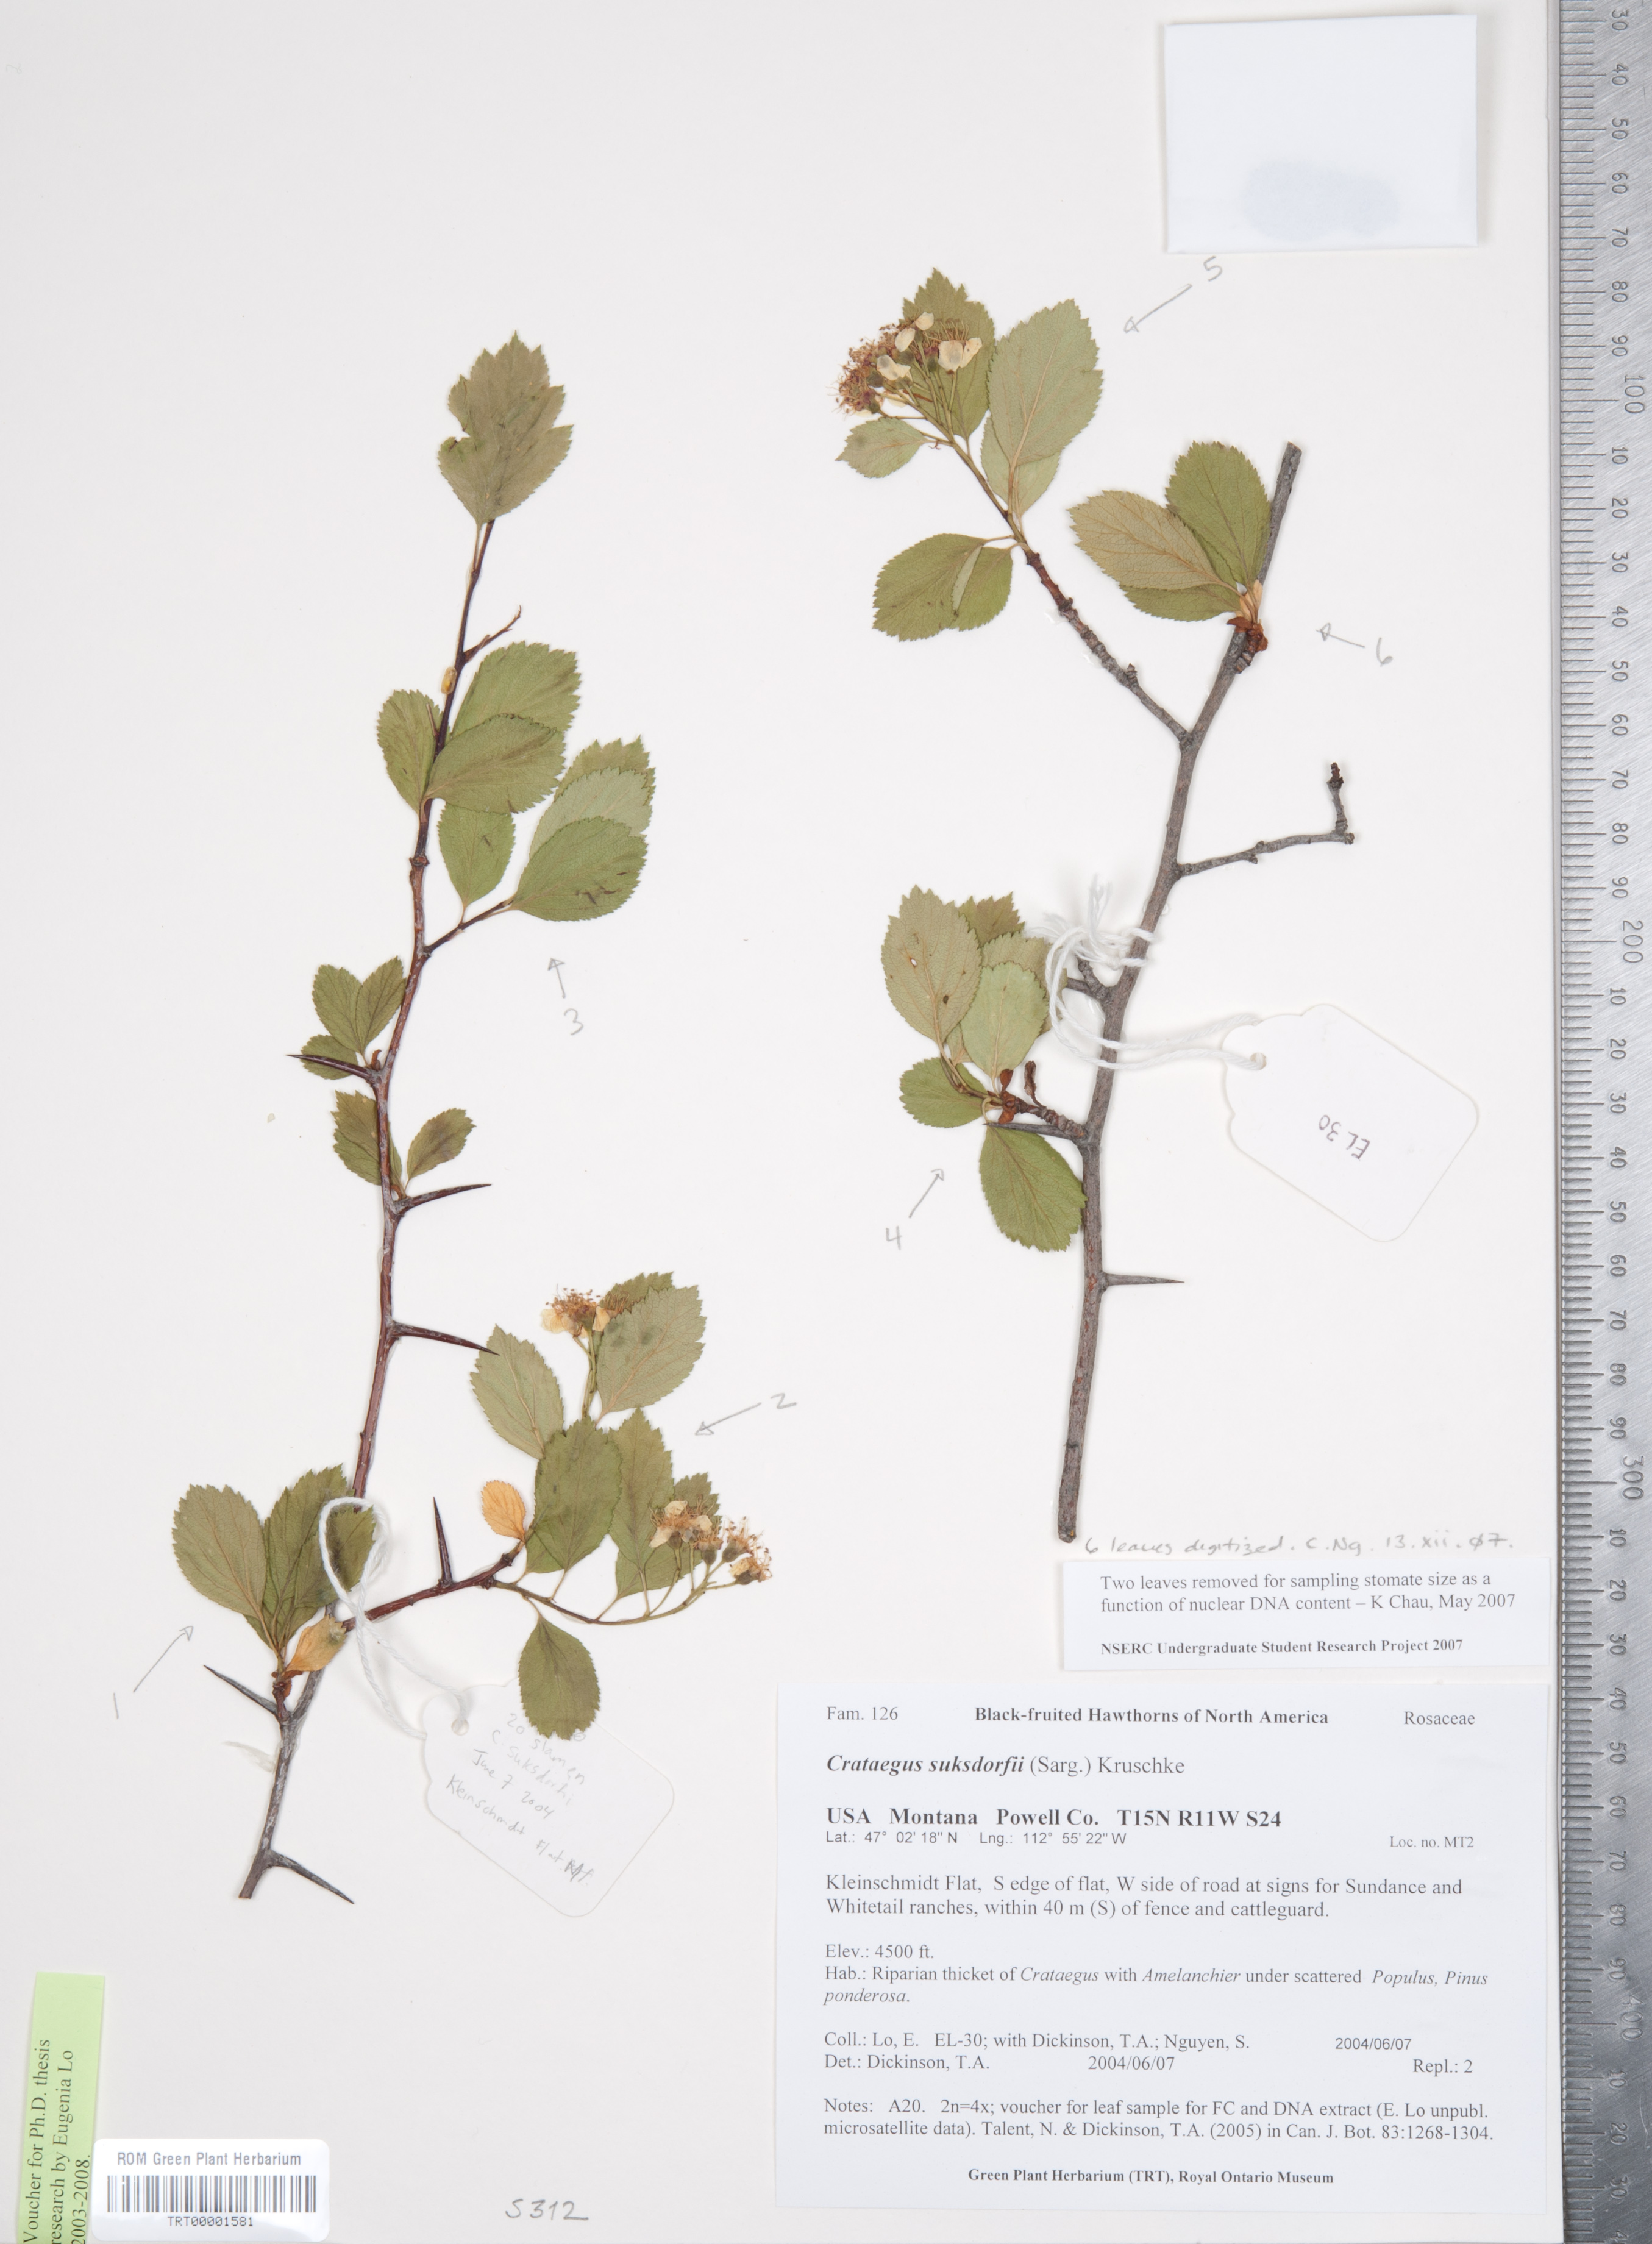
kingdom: Plantae
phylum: Tracheophyta
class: Magnoliopsida
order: Rosales
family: Rosaceae
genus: Crataegus
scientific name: Crataegus gaylussacia
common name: Huckleberry hawthorn
